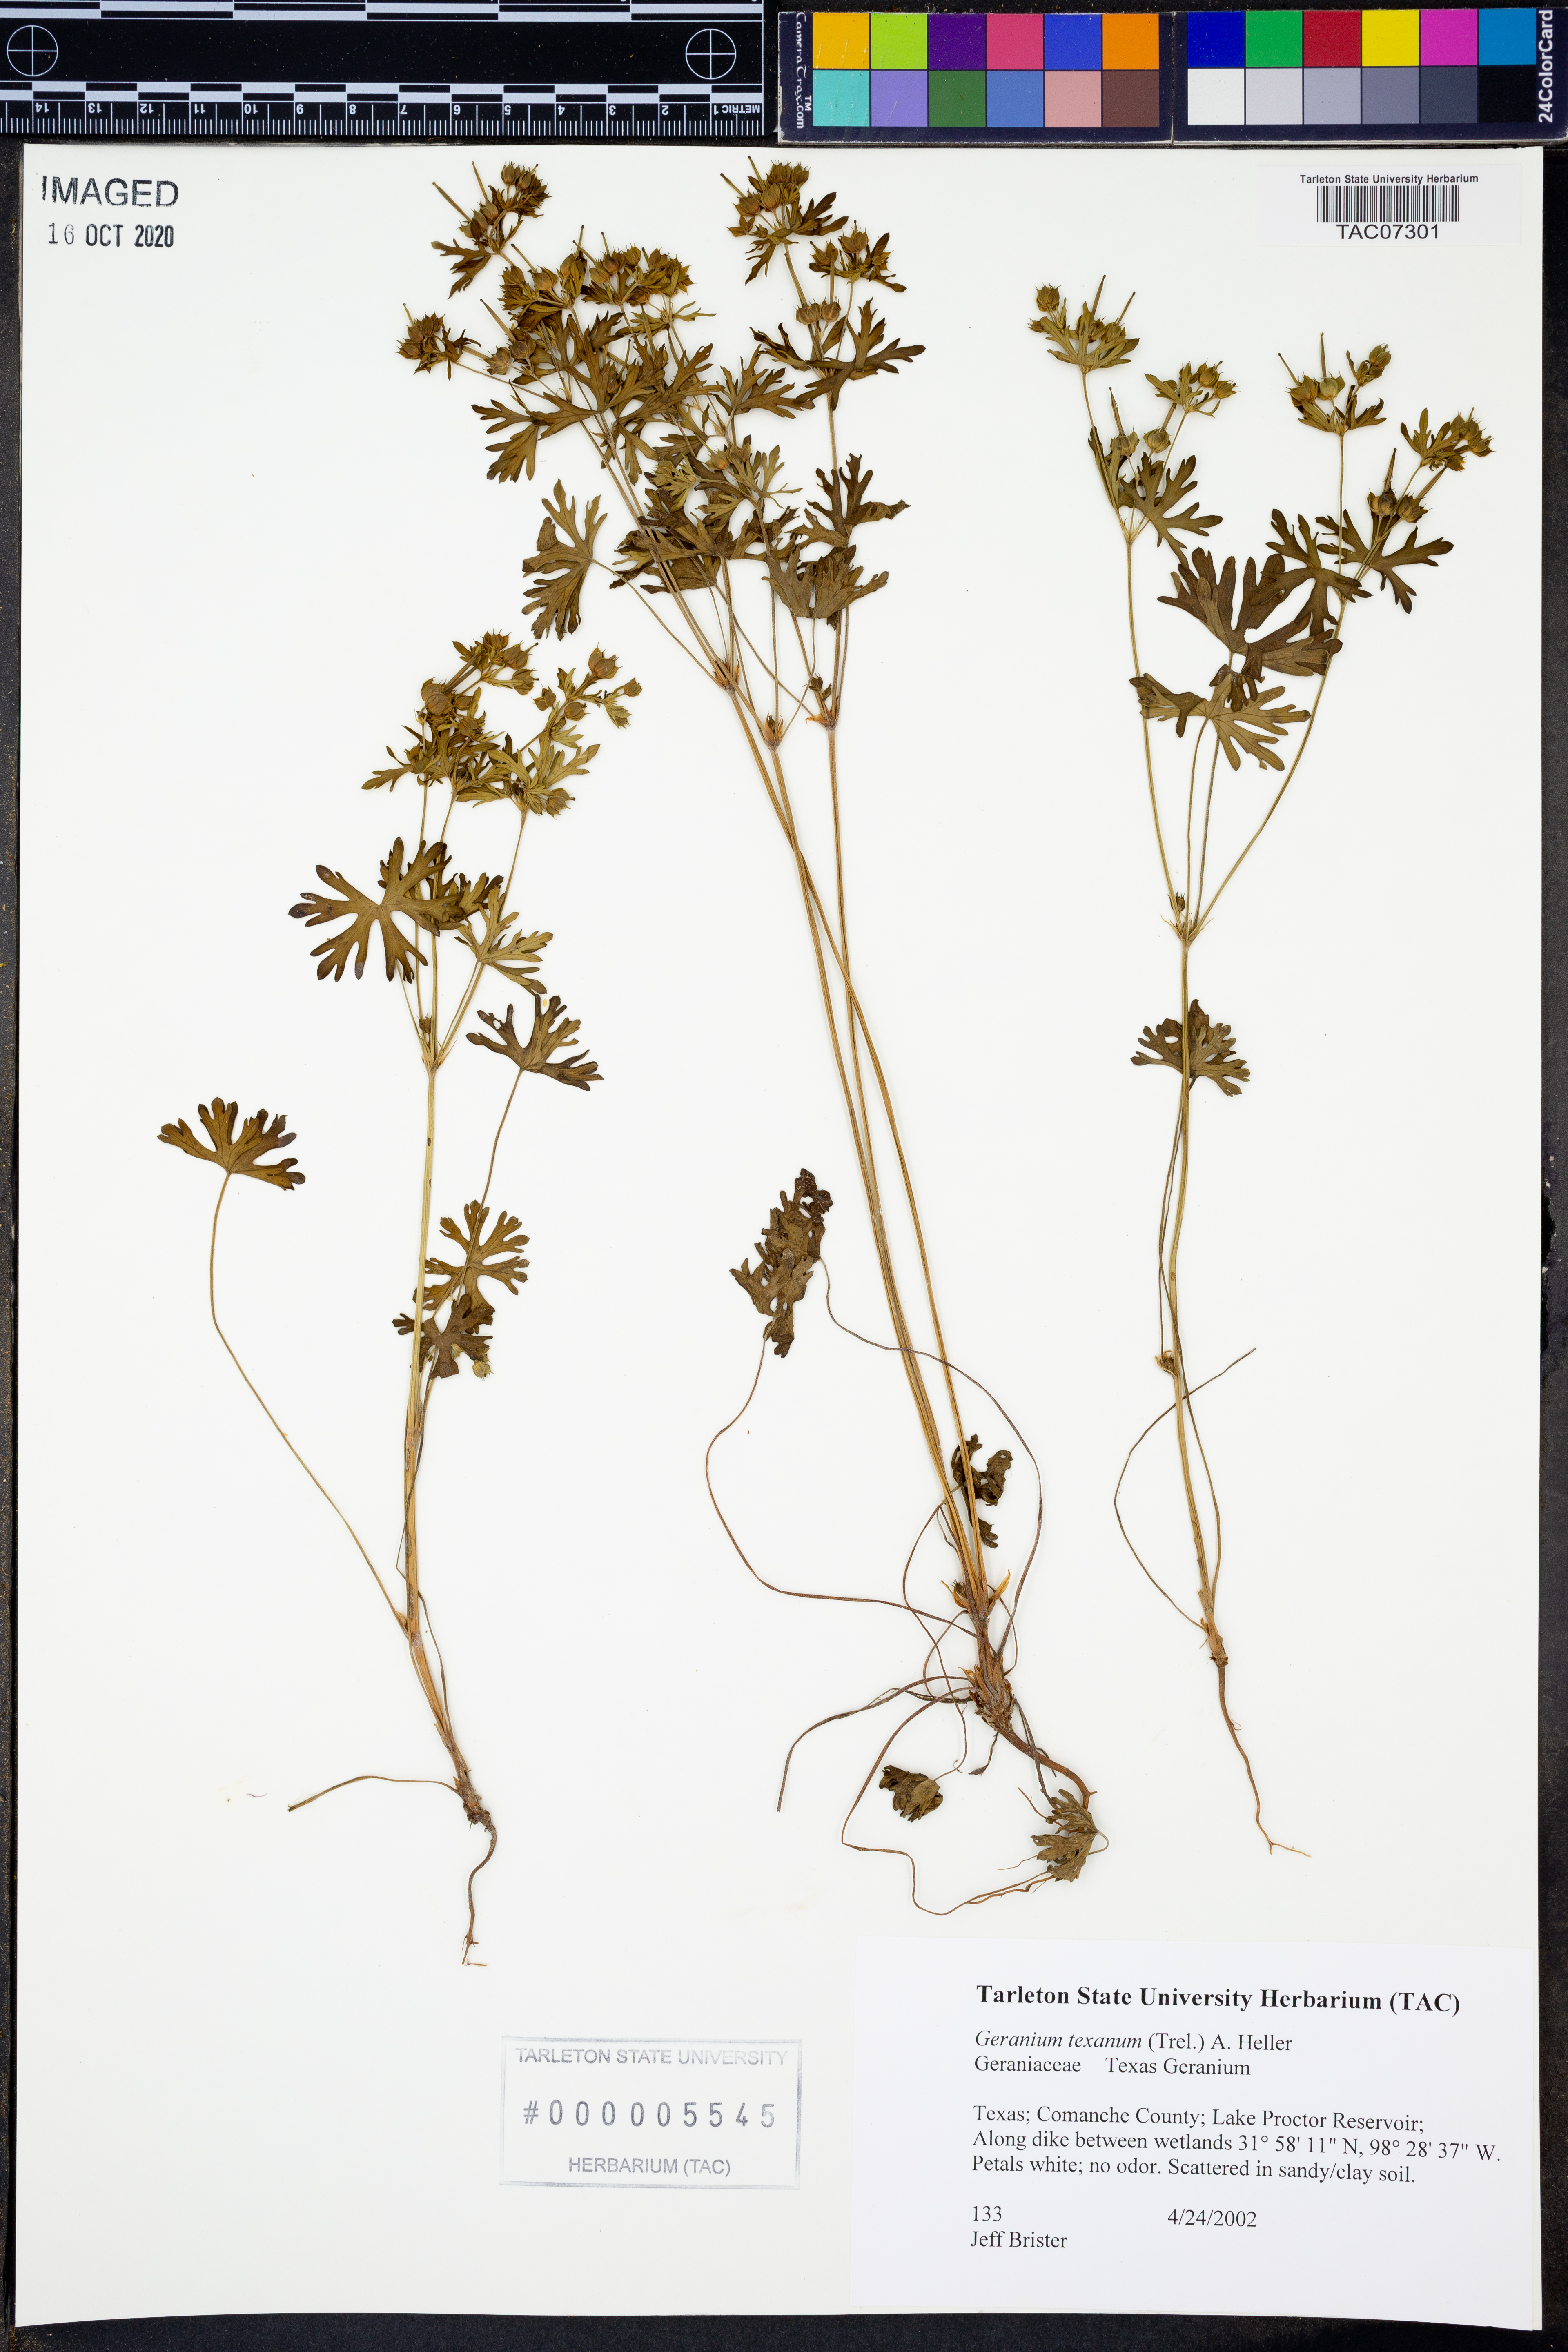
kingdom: Plantae
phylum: Tracheophyta
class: Magnoliopsida
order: Geraniales
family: Geraniaceae
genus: Geranium
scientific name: Geranium texanum
